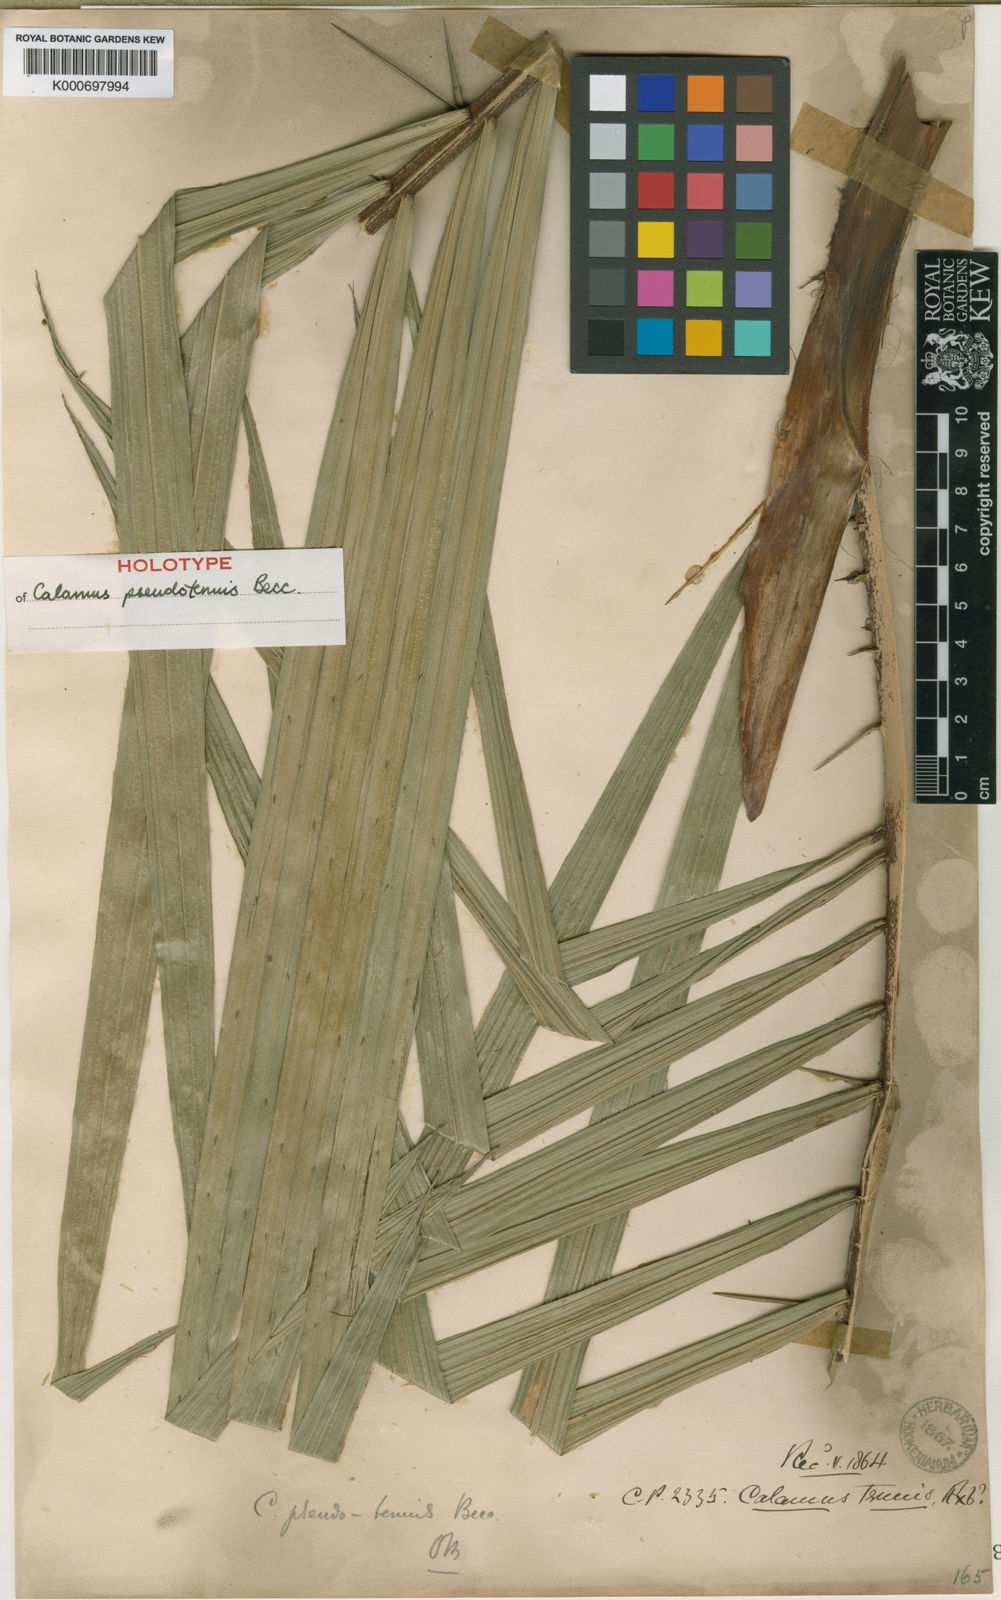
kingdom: Plantae
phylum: Tracheophyta
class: Liliopsida
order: Arecales
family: Arecaceae
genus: Calamus
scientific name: Calamus pseudotenuis
